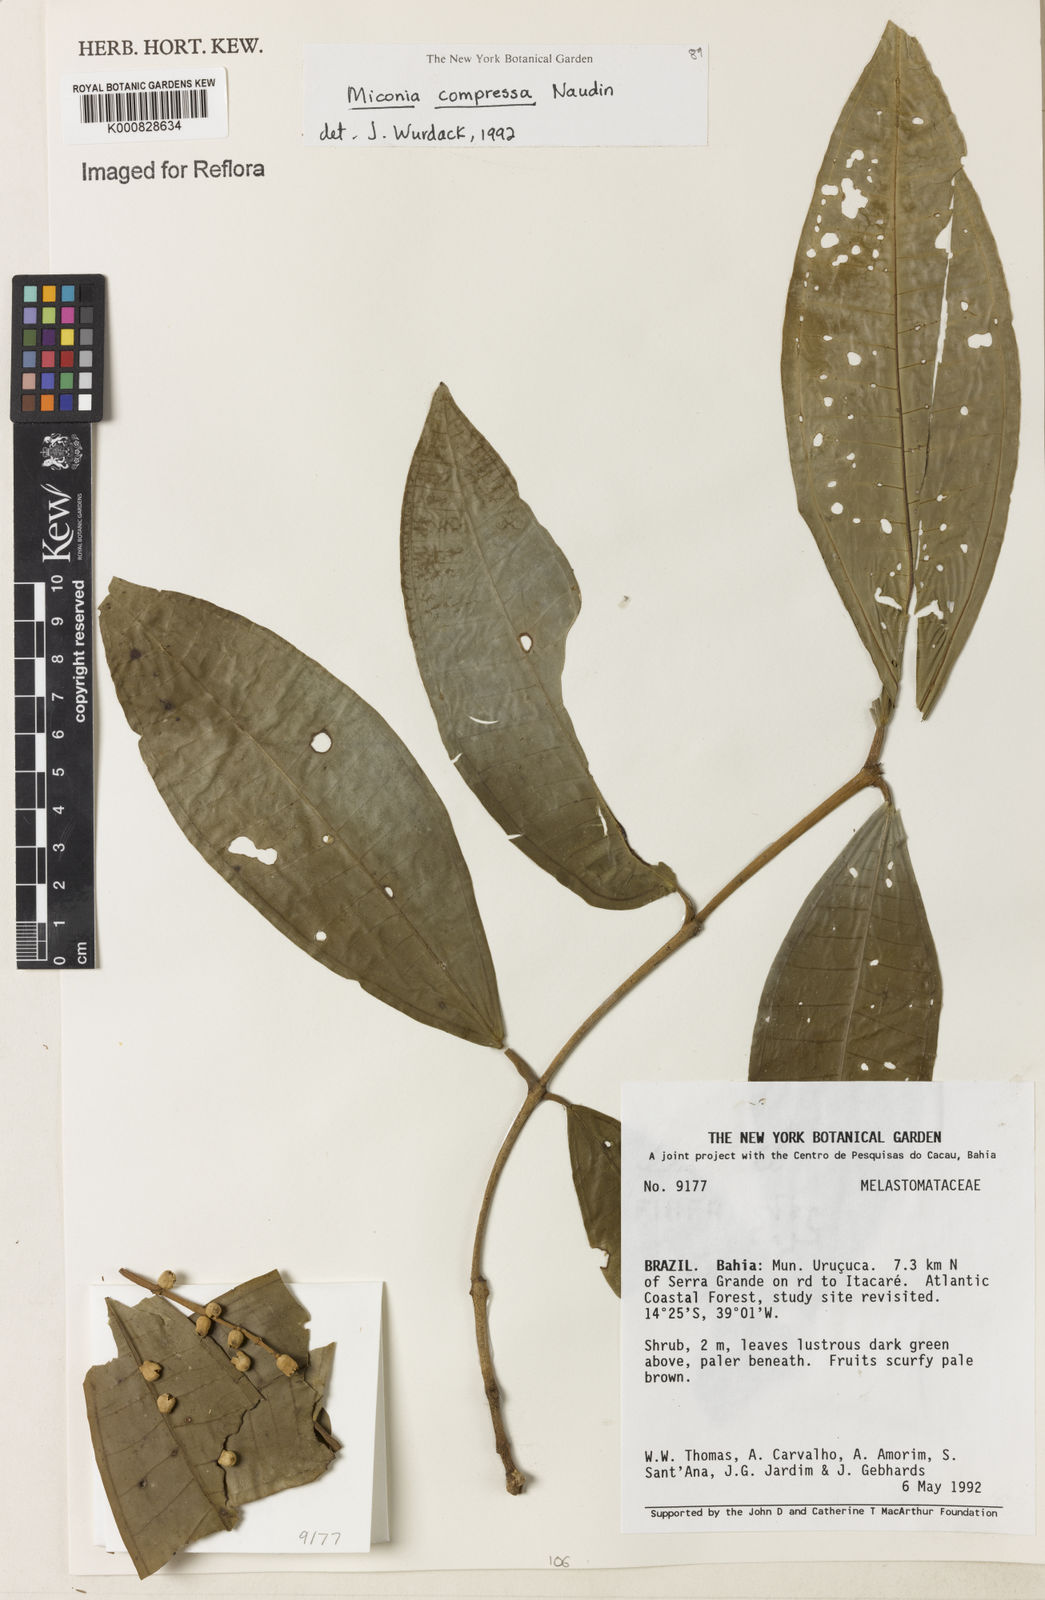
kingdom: Plantae
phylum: Tracheophyta
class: Magnoliopsida
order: Myrtales
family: Melastomataceae
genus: Miconia
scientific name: Miconia compressa
